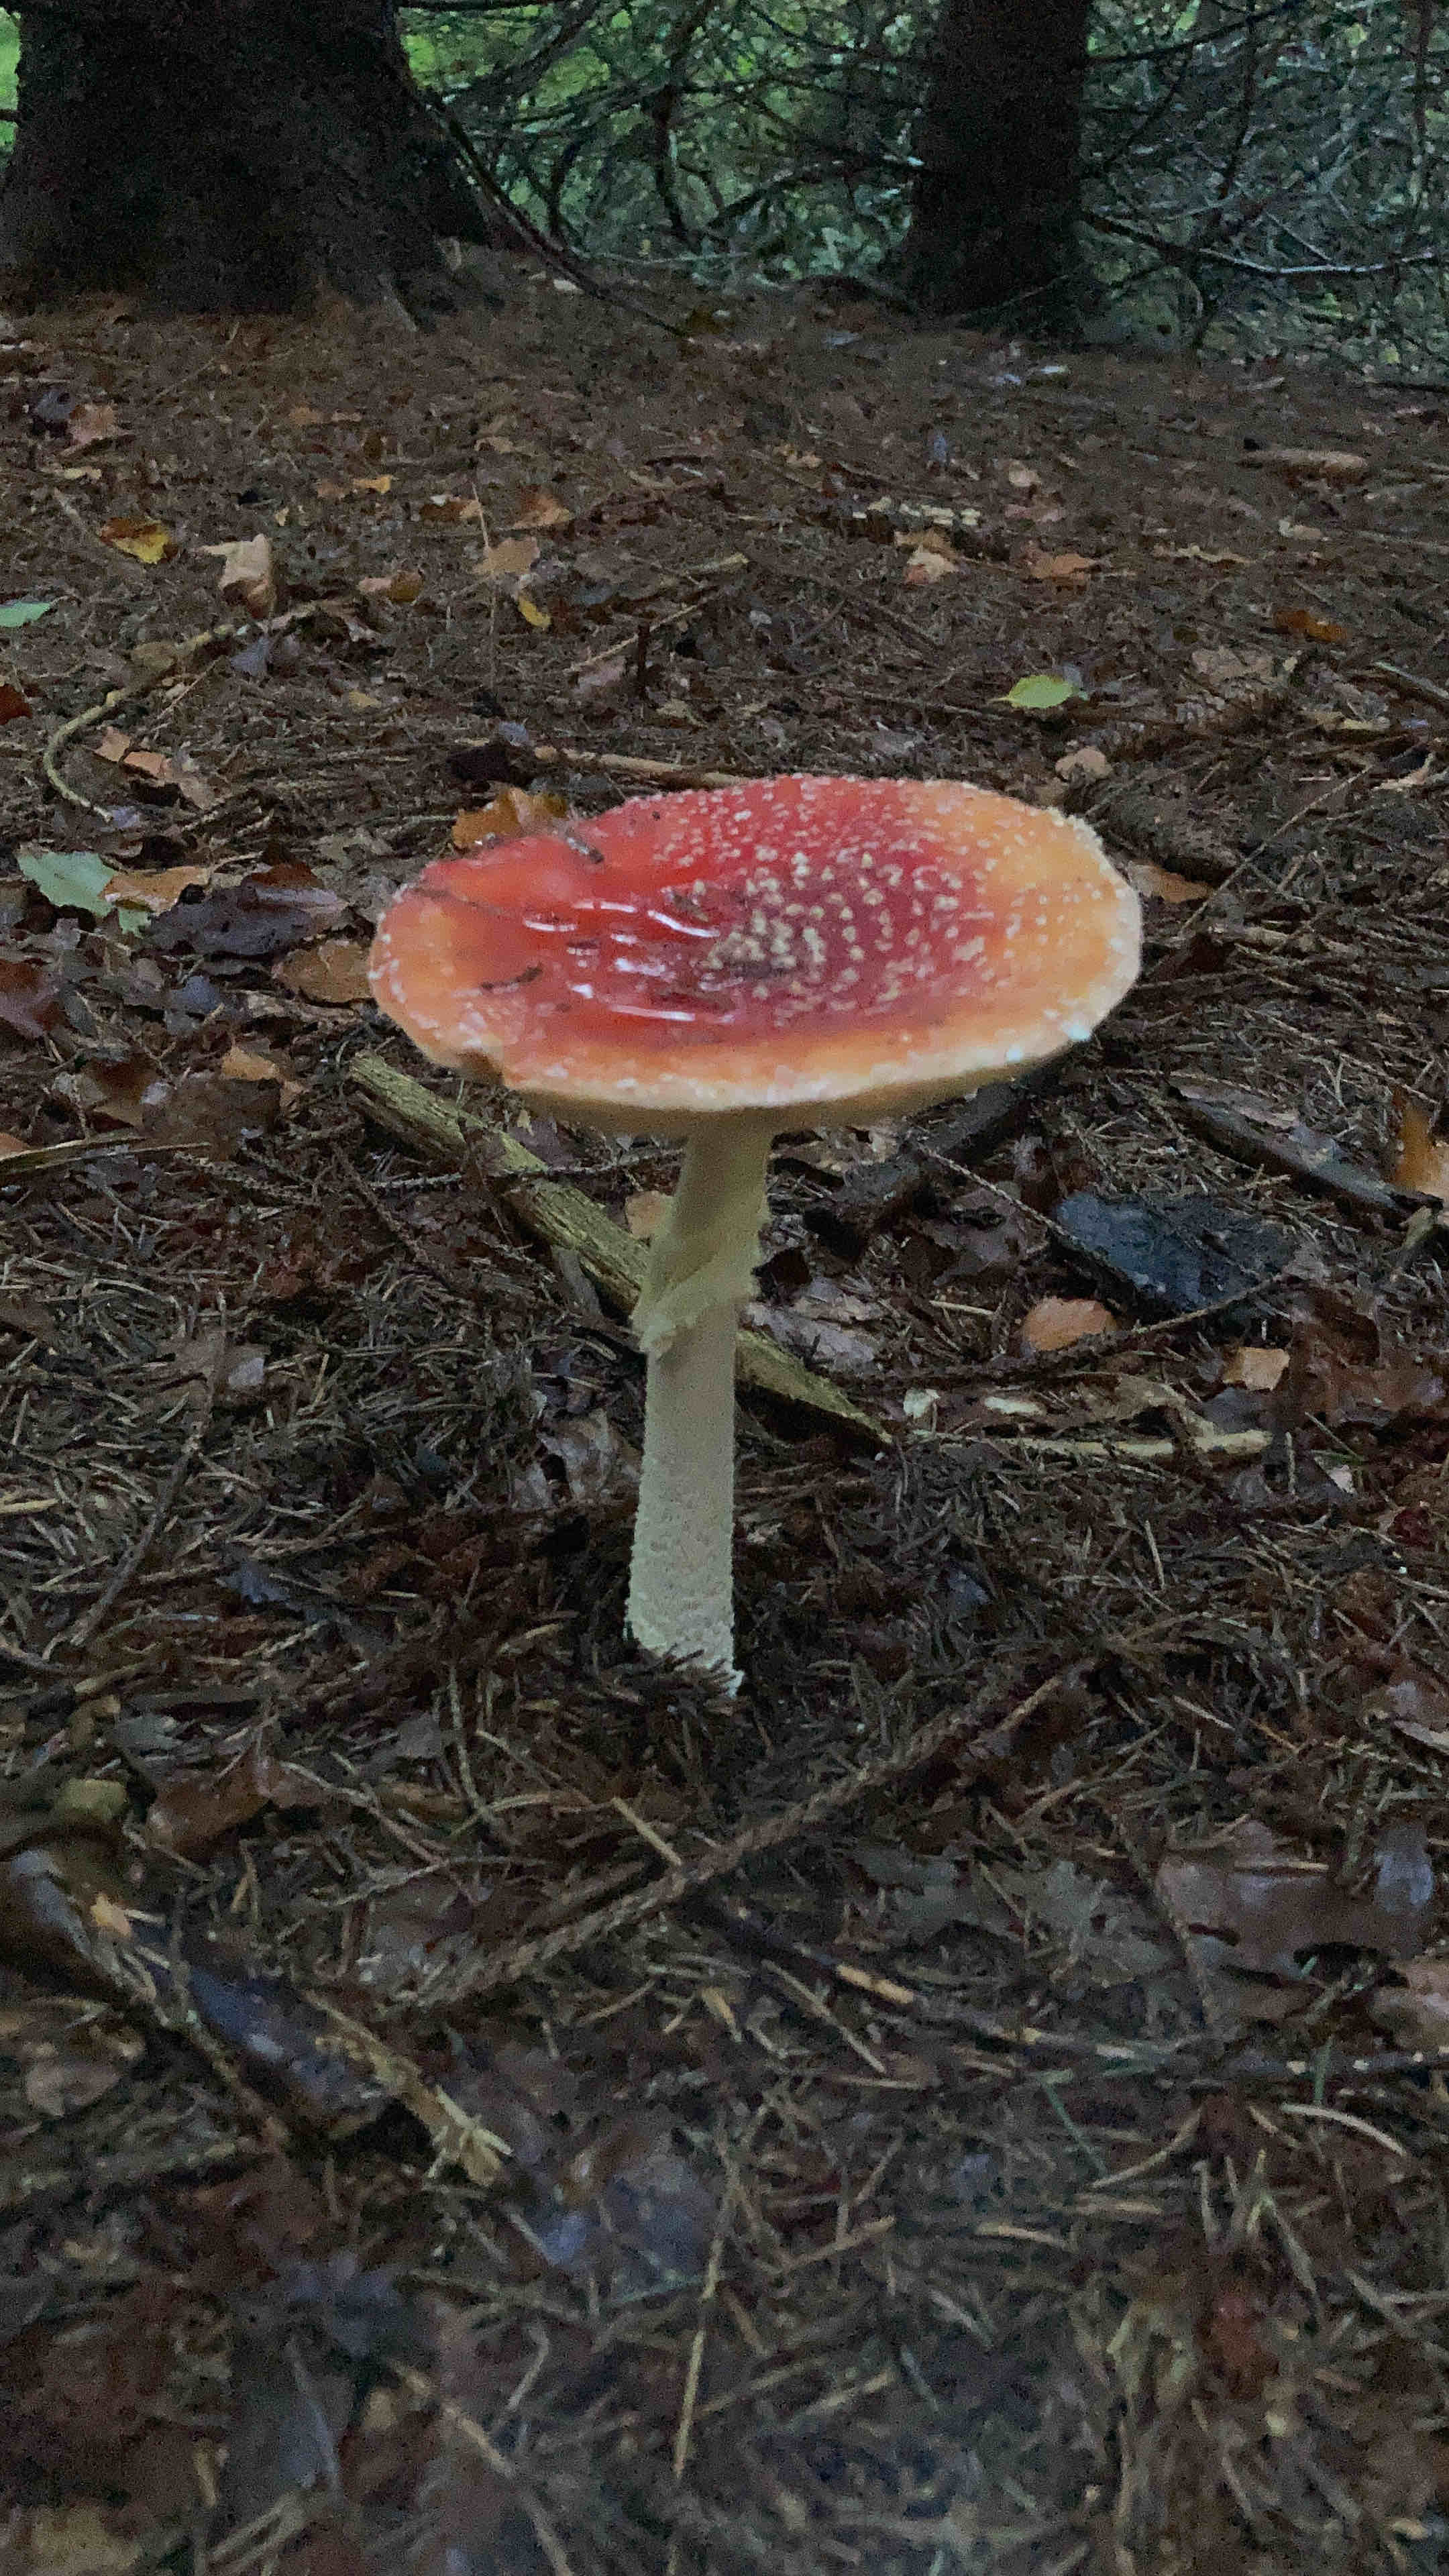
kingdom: Fungi
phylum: Basidiomycota
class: Agaricomycetes
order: Agaricales
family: Amanitaceae
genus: Amanita
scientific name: Amanita muscaria
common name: rød fluesvamp
